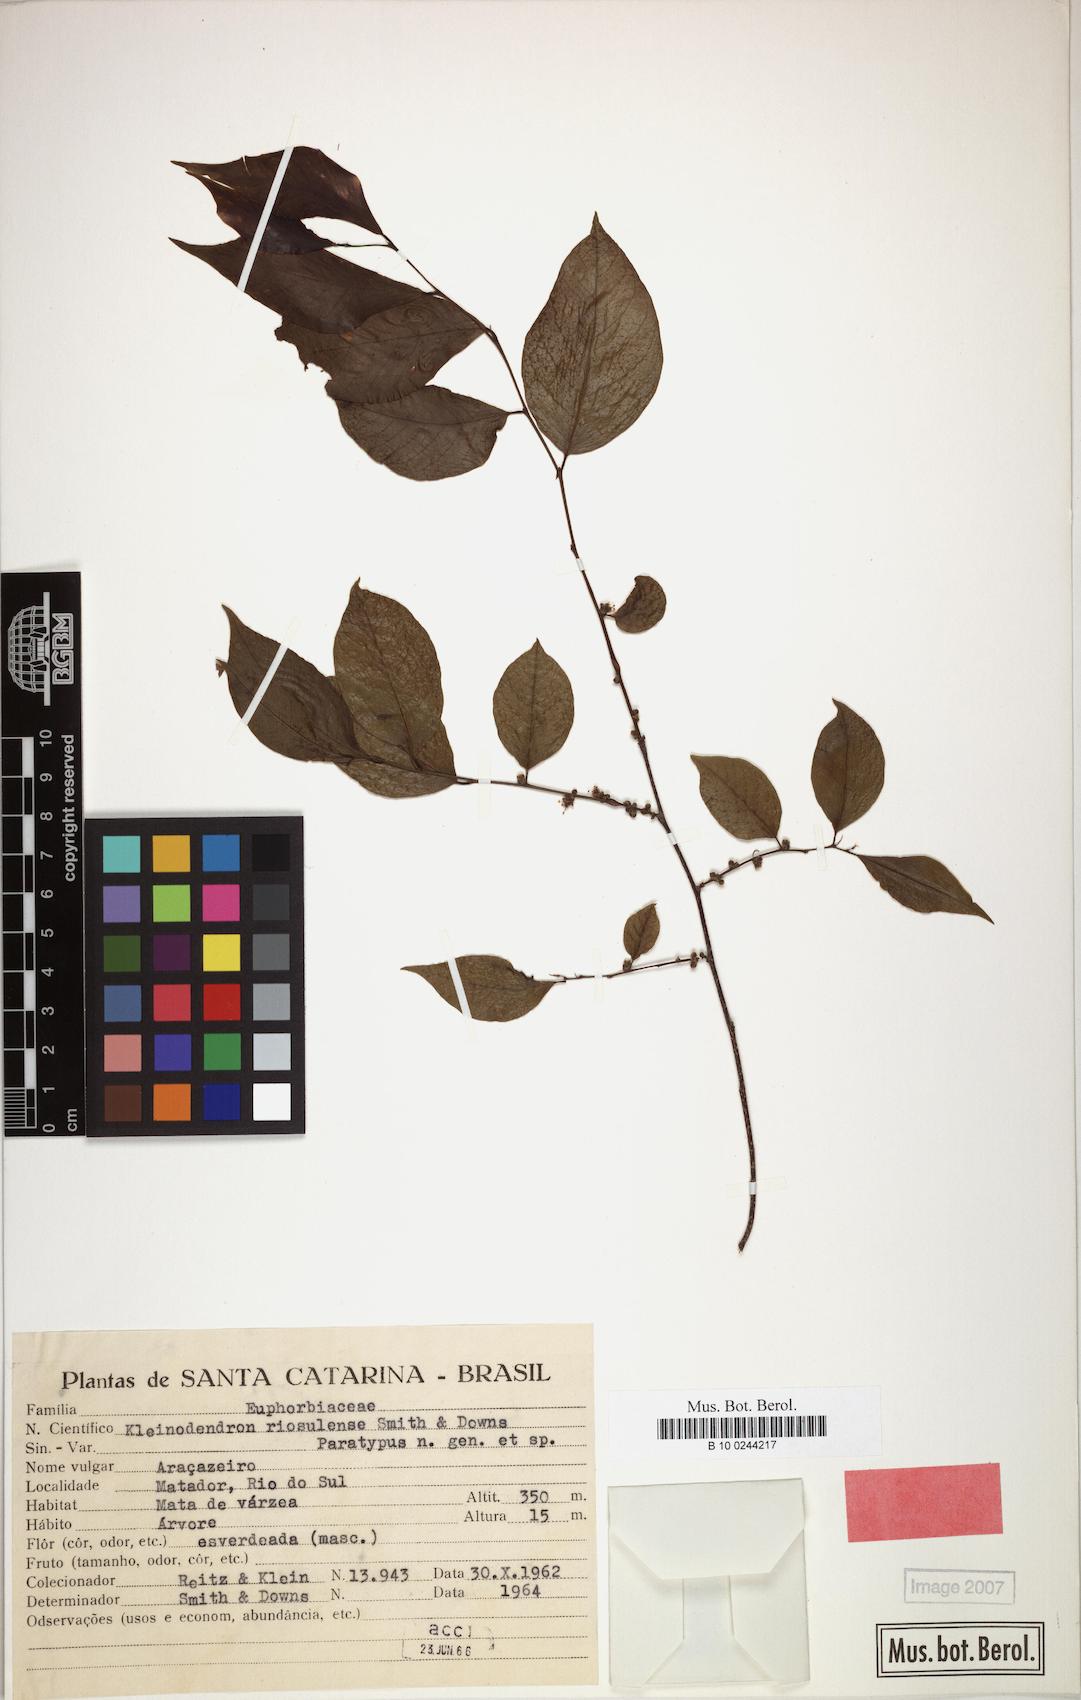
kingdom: Plantae
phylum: Tracheophyta
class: Magnoliopsida
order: Malpighiales
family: Phyllanthaceae
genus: Savia
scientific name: Savia dictyocarpa
